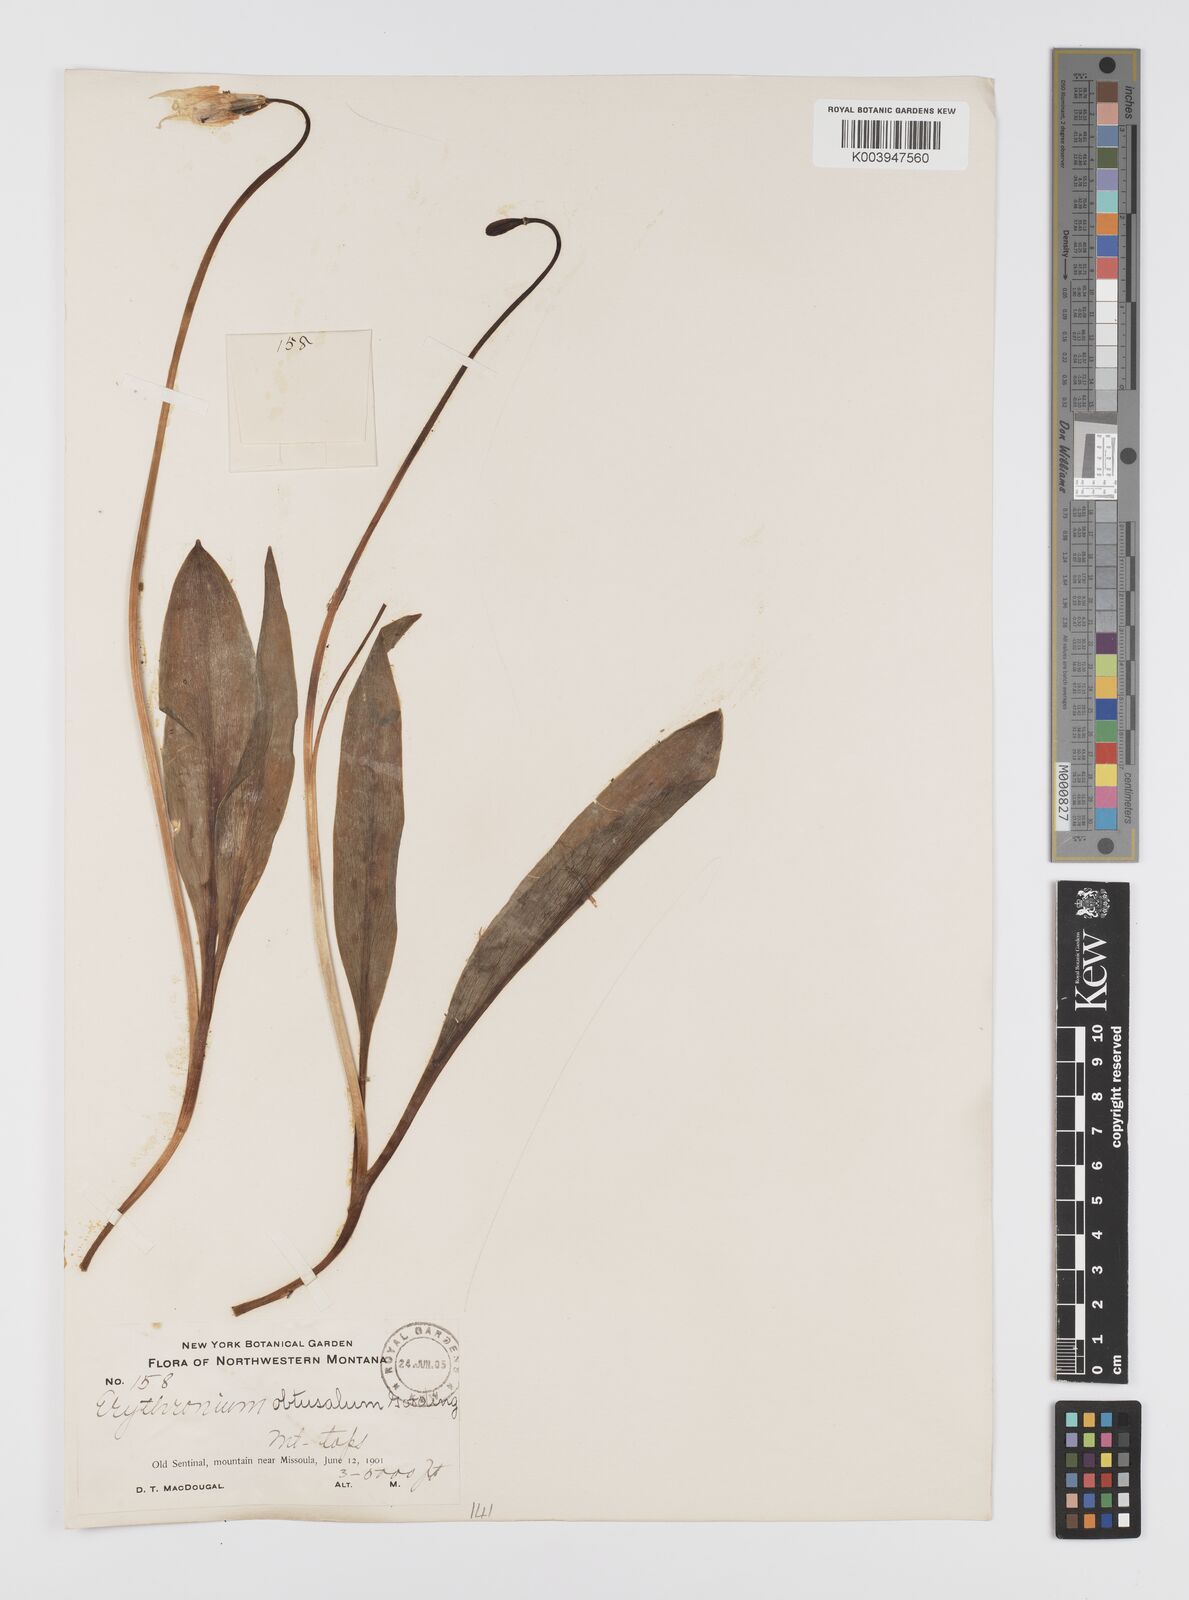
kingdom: Plantae
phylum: Tracheophyta
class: Liliopsida
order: Liliales
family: Liliaceae
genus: Erythronium
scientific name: Erythronium grandiflorum
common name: Avalanche-lily
